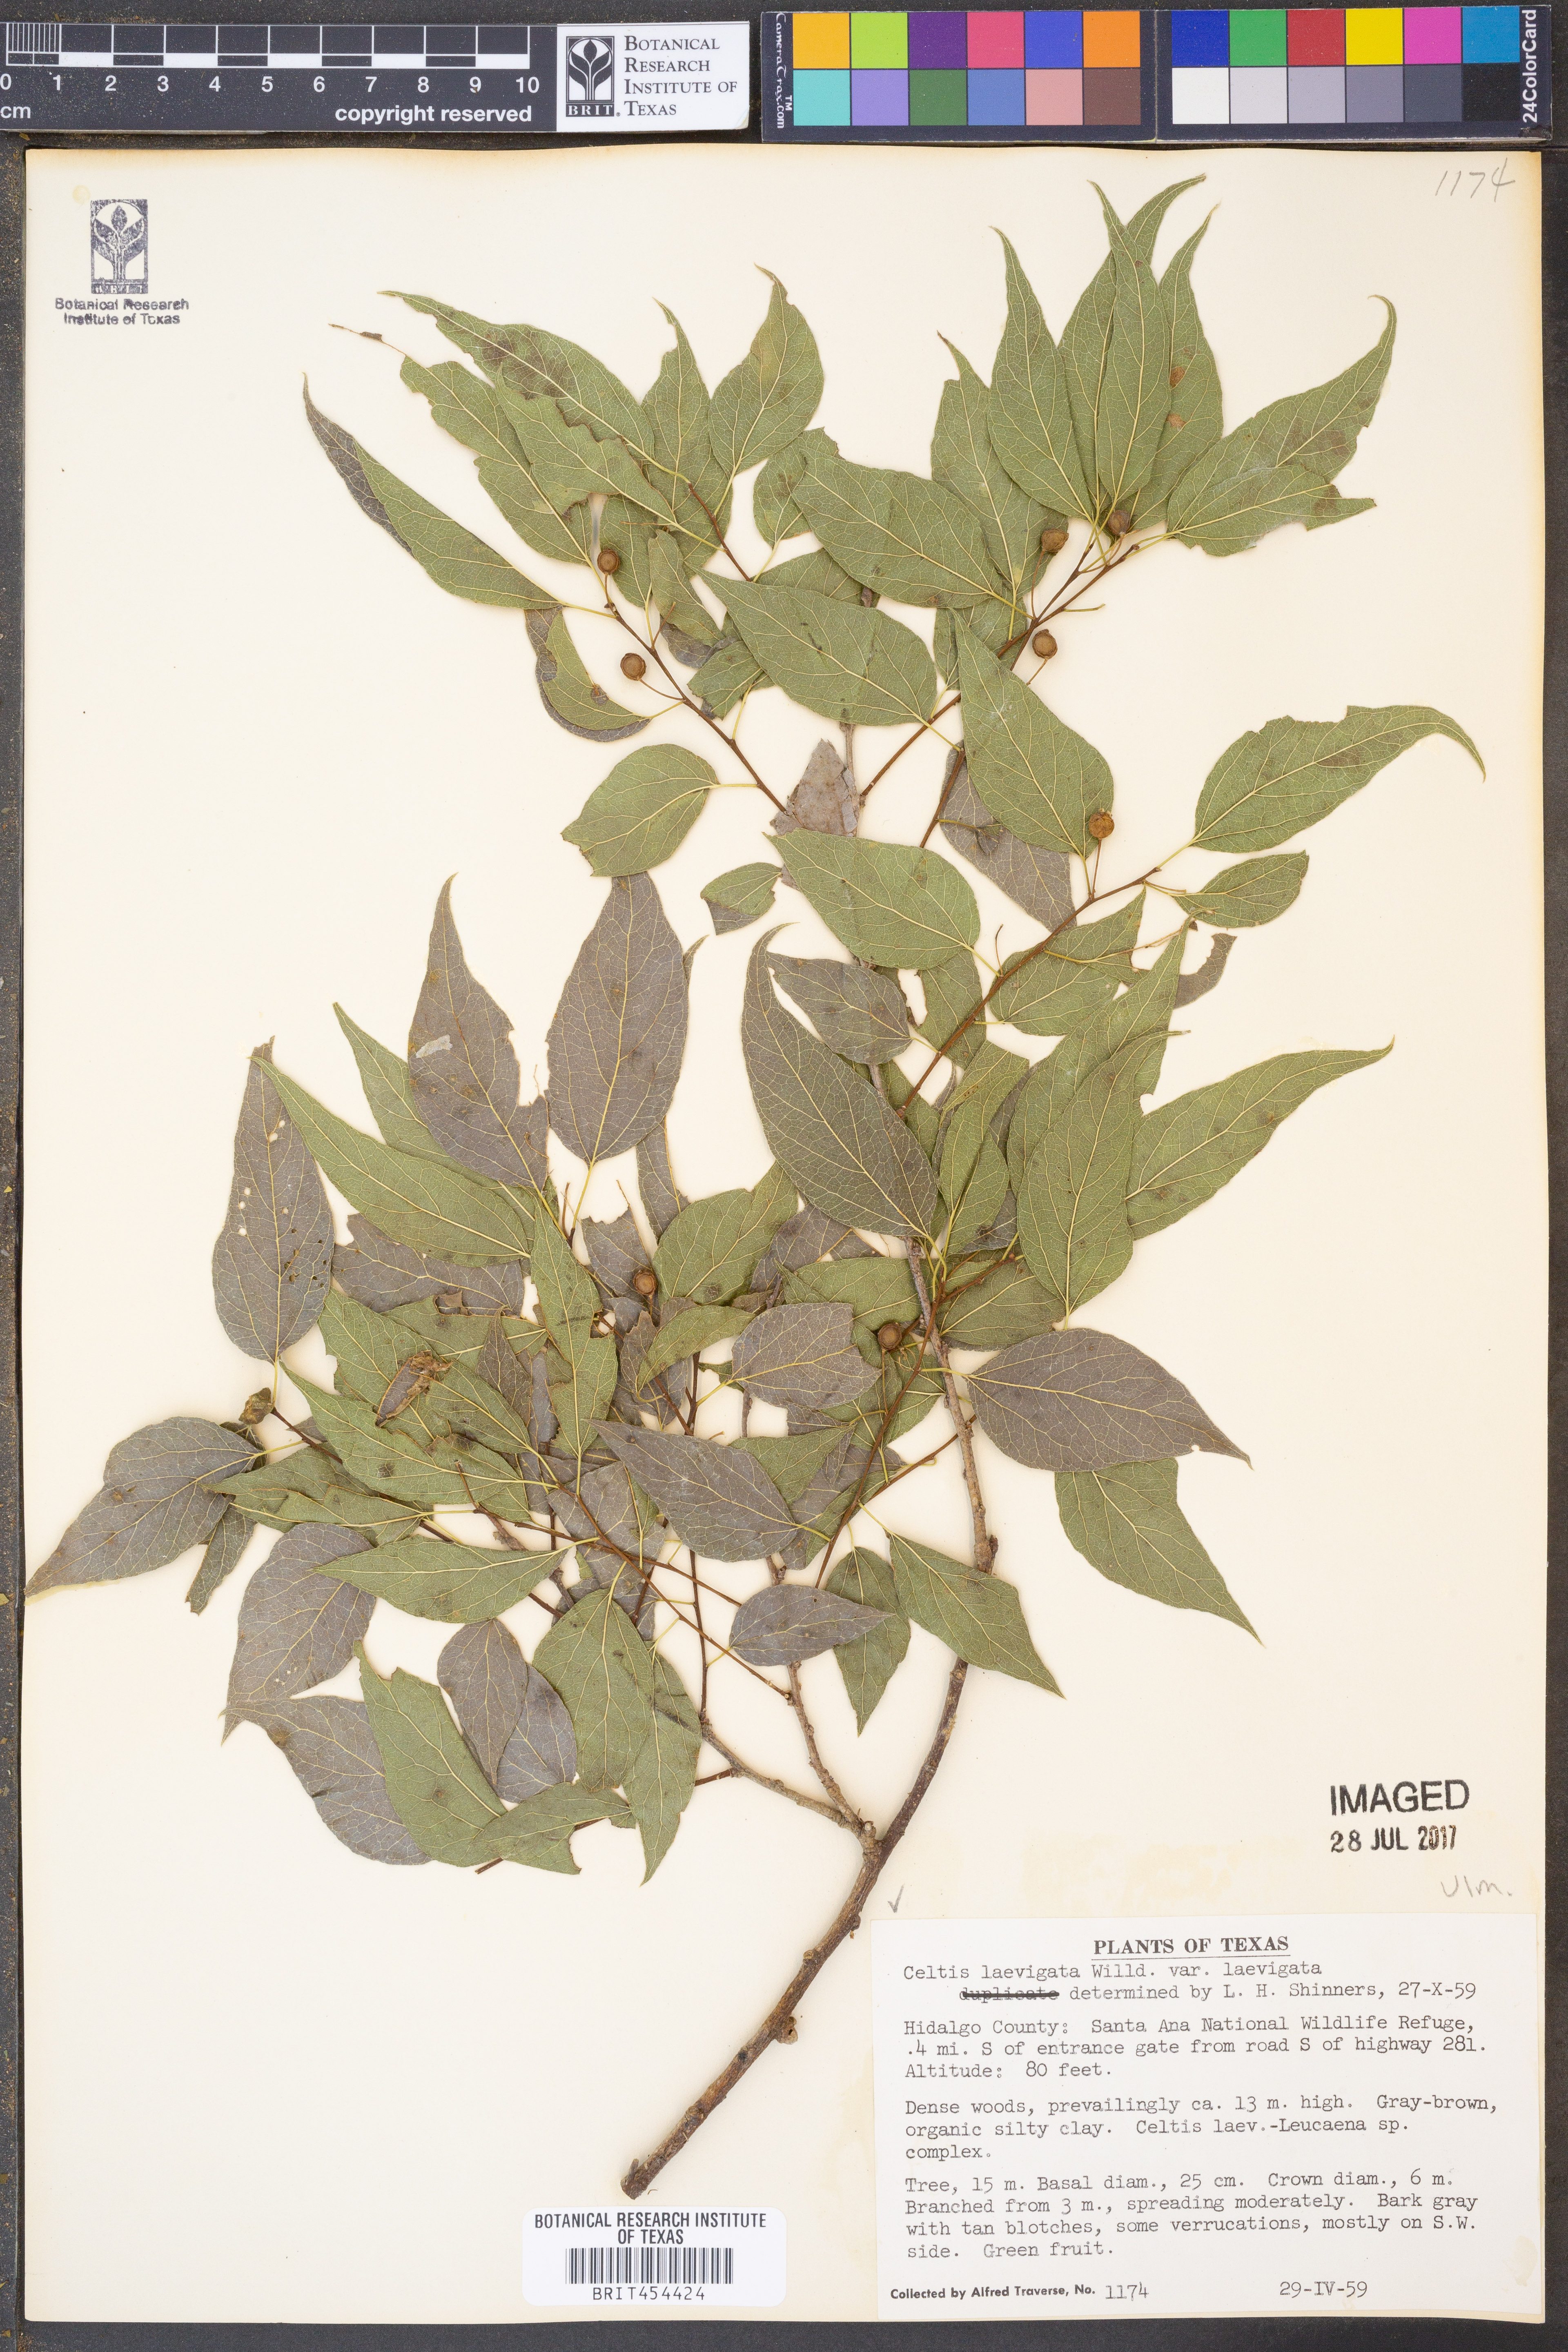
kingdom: Plantae
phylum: Tracheophyta
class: Magnoliopsida
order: Rosales
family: Cannabaceae
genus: Celtis
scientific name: Celtis laevigata
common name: Sugarberry
